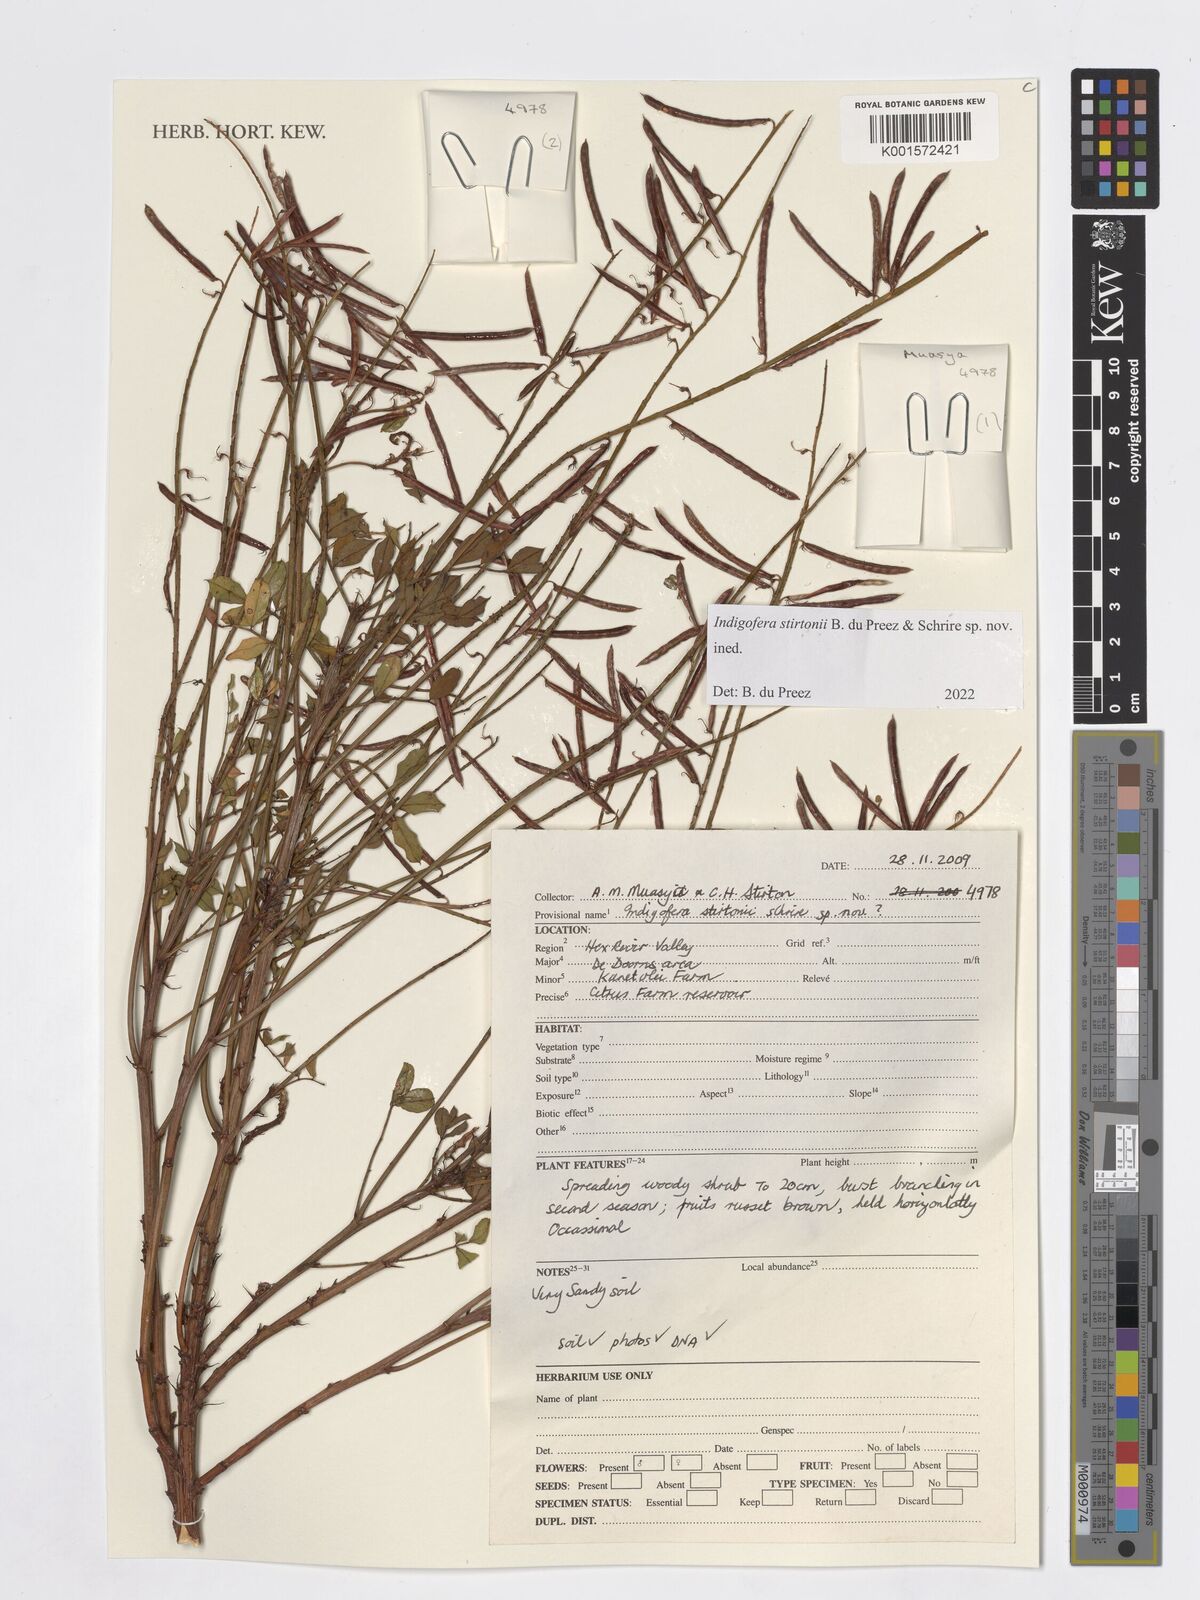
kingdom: Plantae
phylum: Tracheophyta
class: Magnoliopsida
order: Fabales
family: Fabaceae
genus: Indigofera
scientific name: Indigofera
